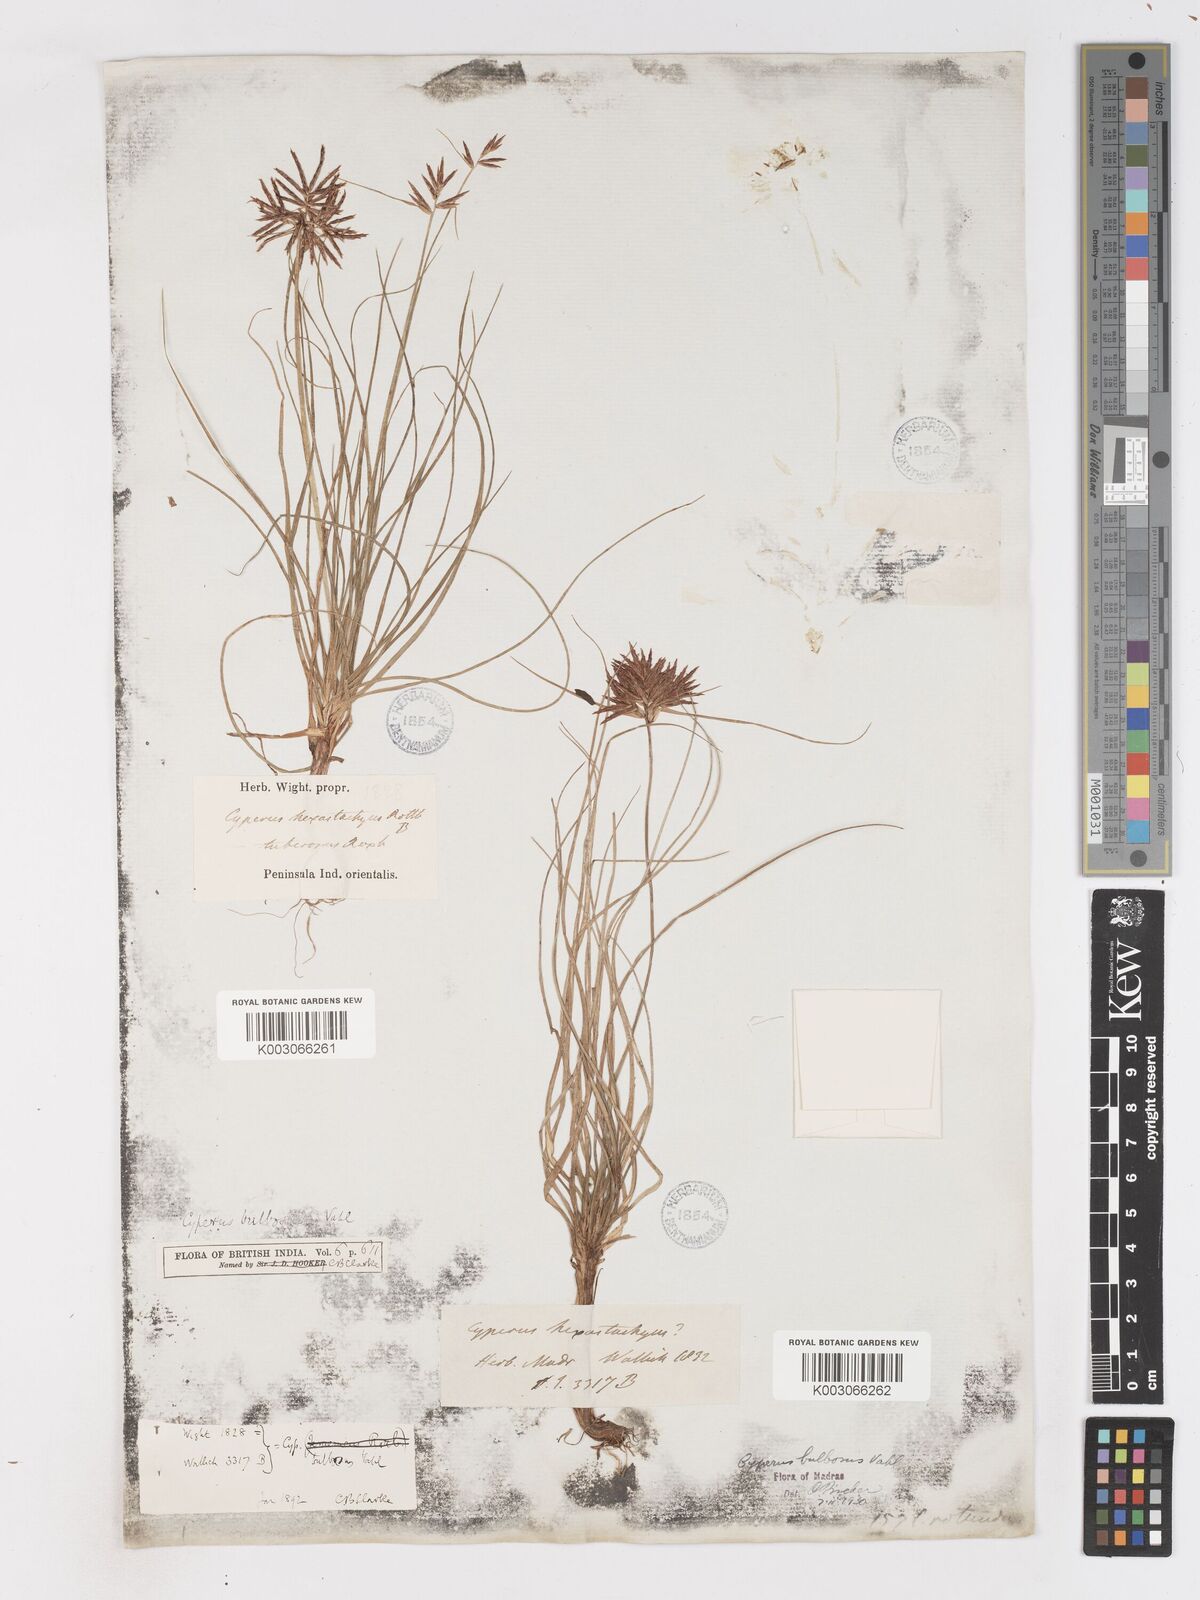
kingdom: Plantae
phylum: Tracheophyta
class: Liliopsida
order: Poales
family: Cyperaceae
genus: Cyperus
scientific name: Cyperus bulbosus
